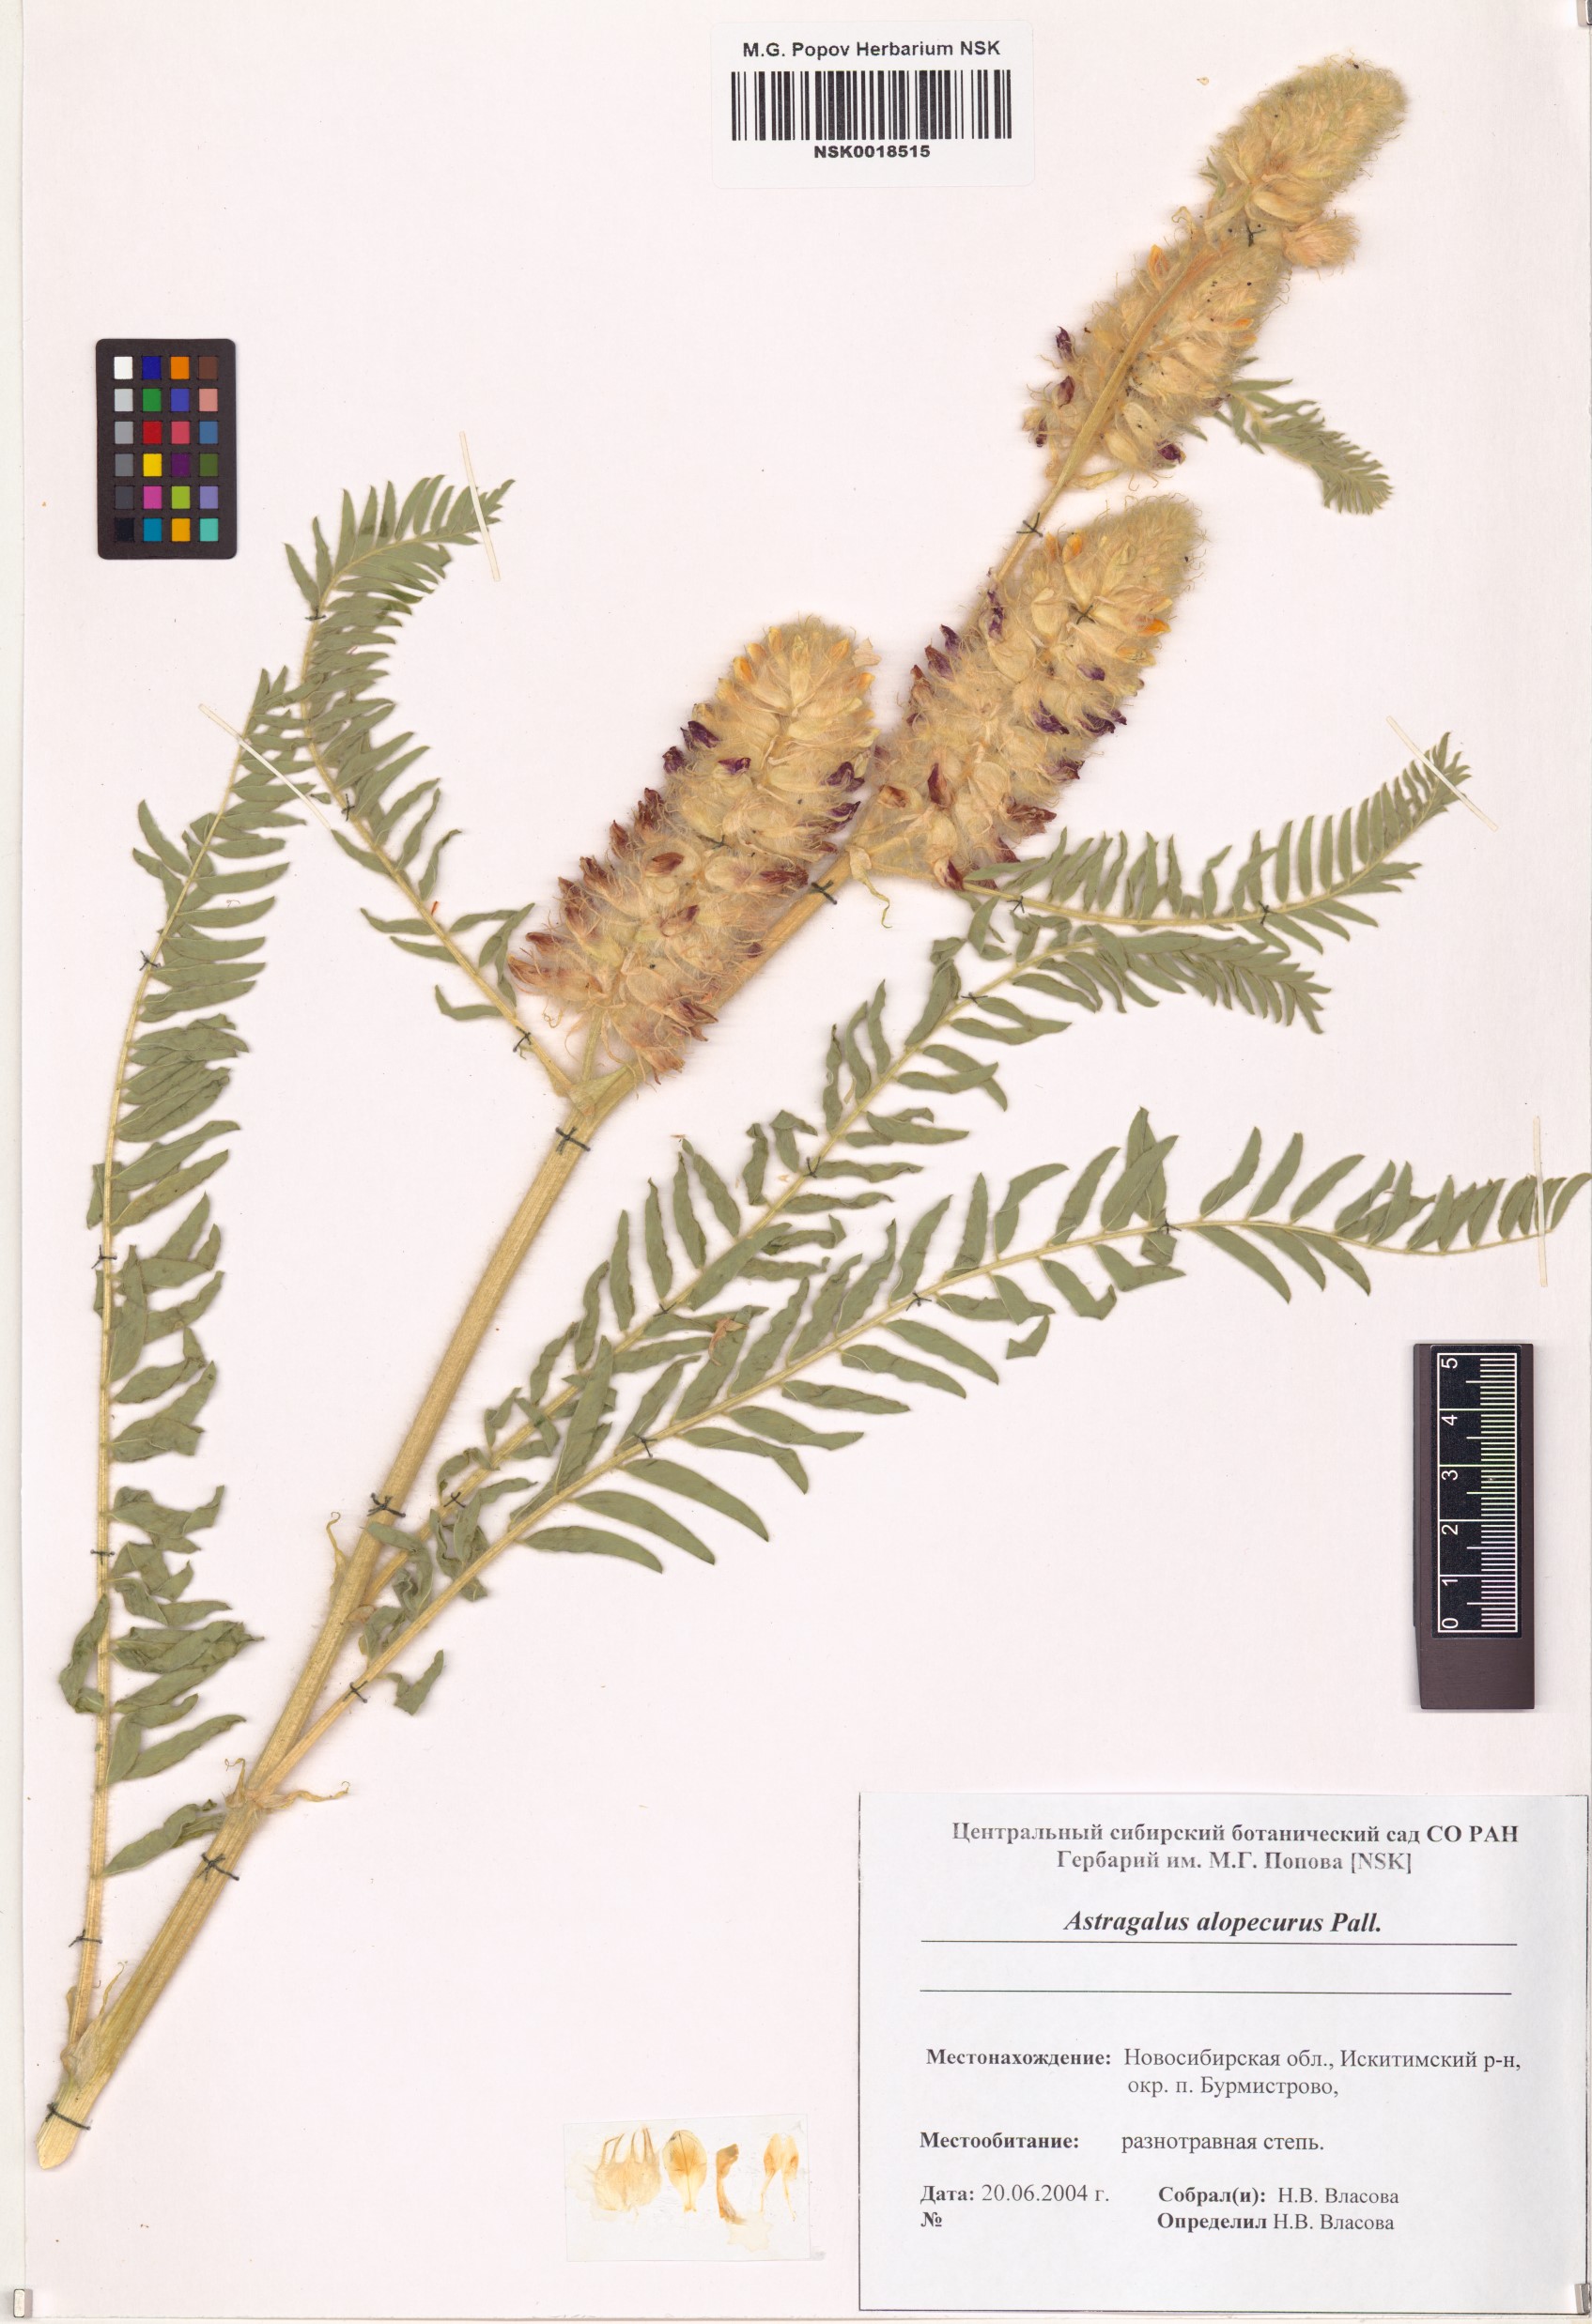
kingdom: Plantae
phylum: Tracheophyta
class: Magnoliopsida
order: Fabales
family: Fabaceae
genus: Astragalus
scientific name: Astragalus alopecurus
